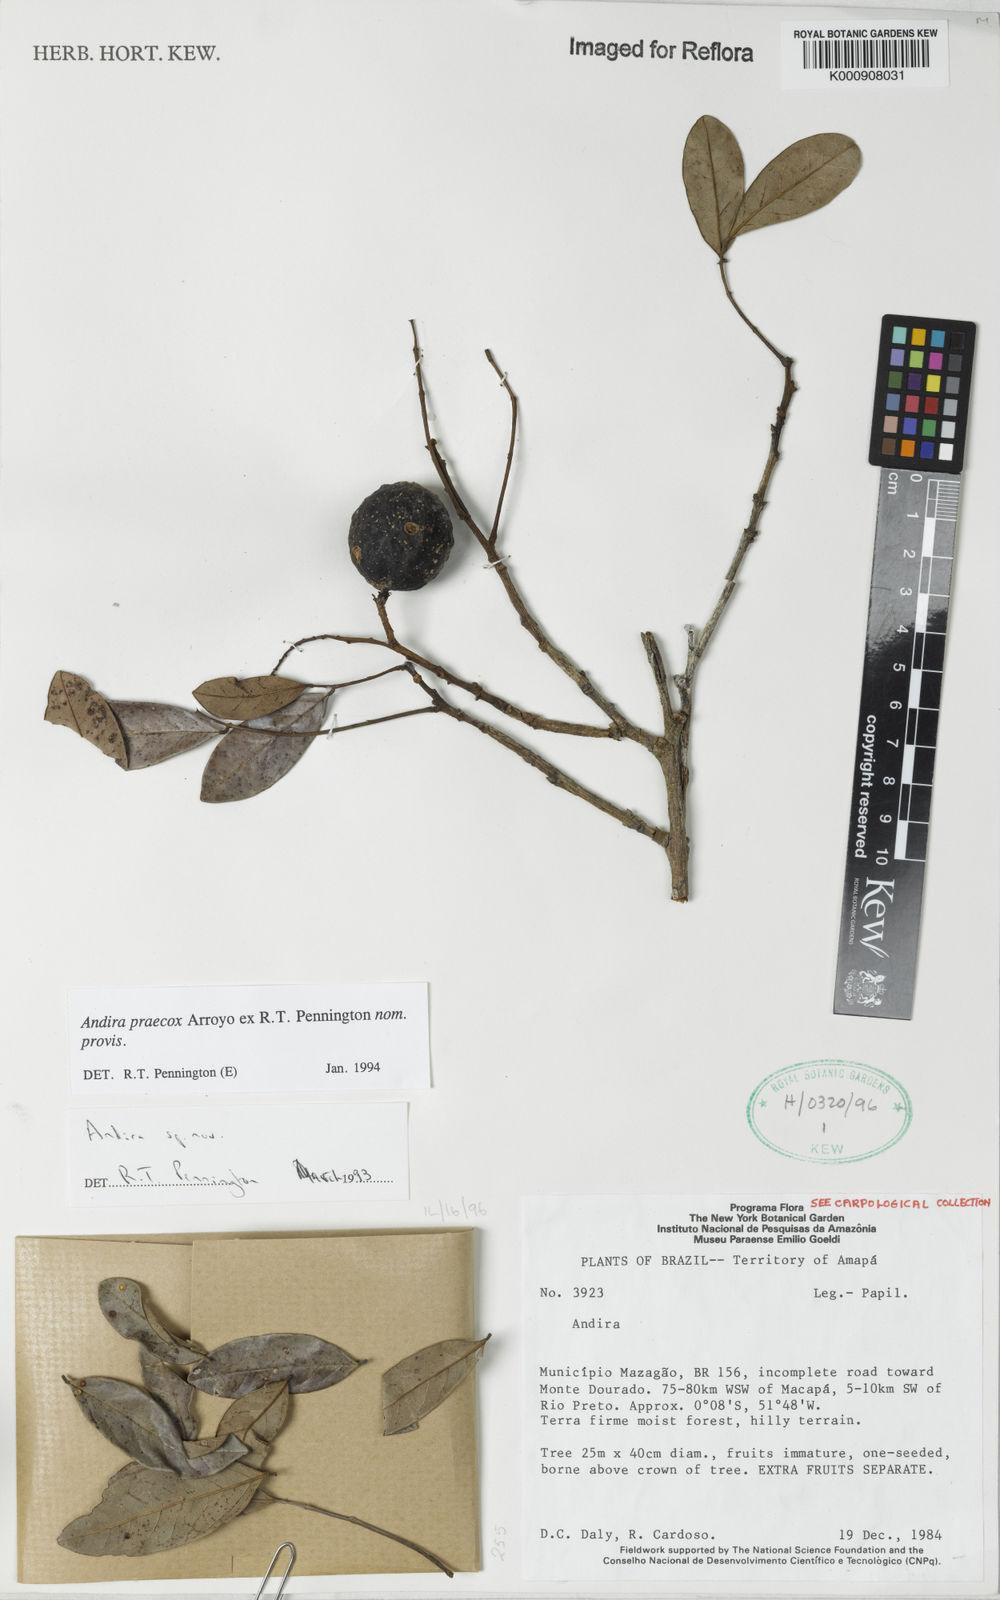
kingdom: Plantae
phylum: Tracheophyta
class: Magnoliopsida
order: Fabales
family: Fabaceae
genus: Andira
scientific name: Andira praecox
